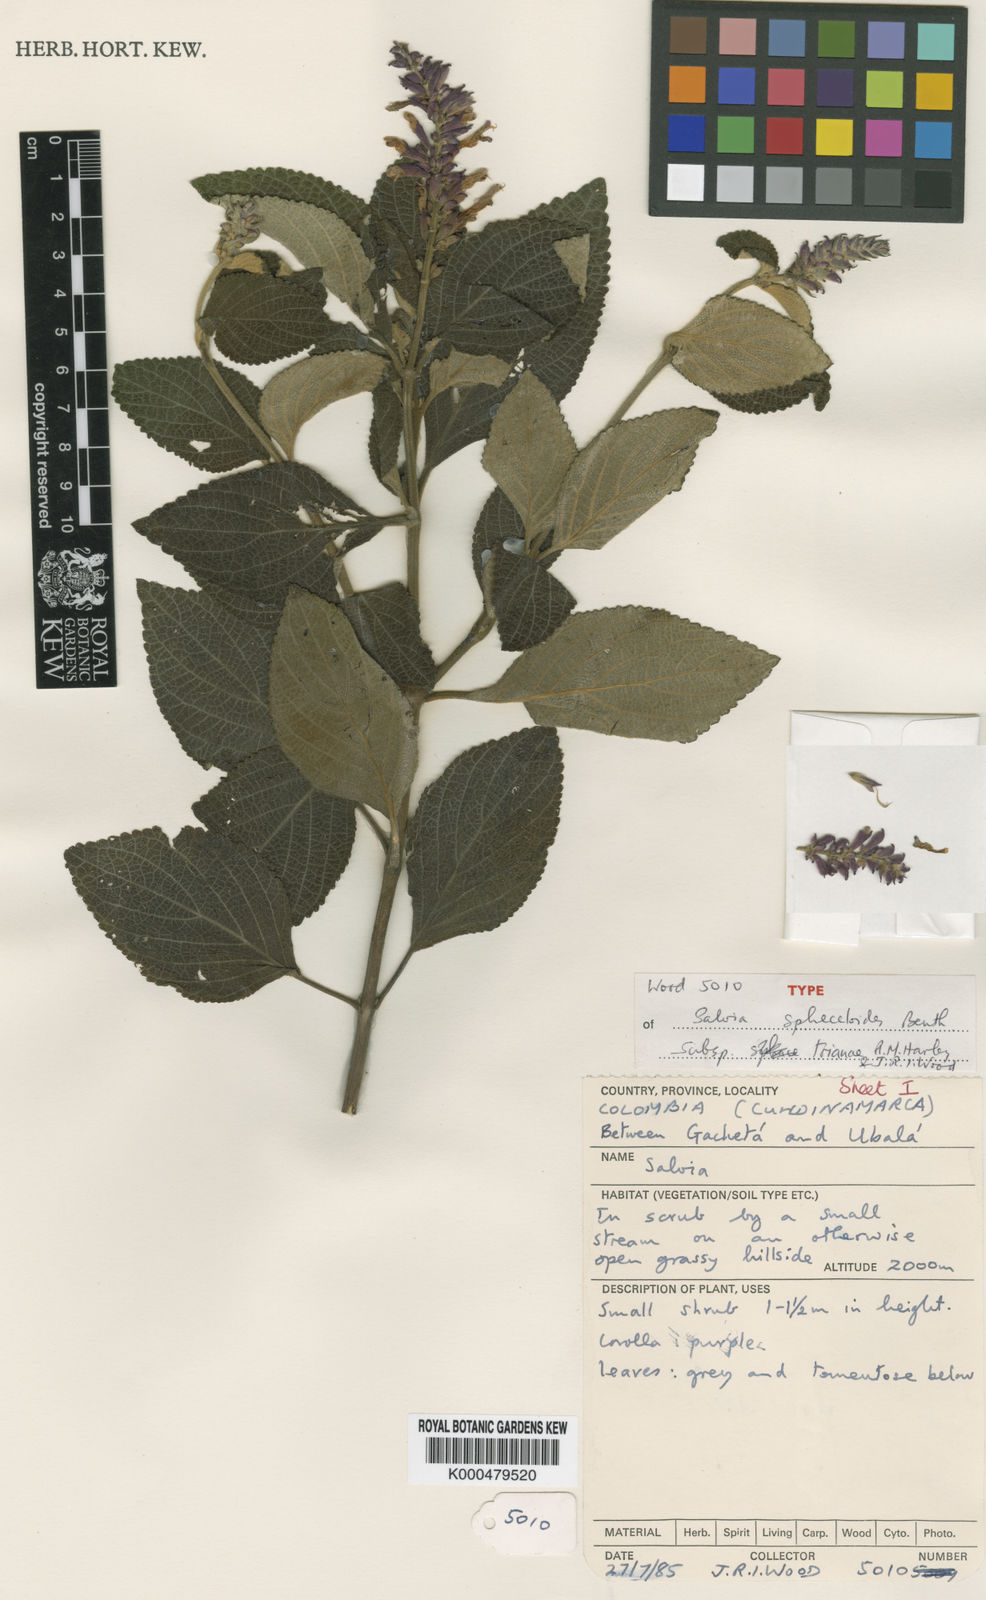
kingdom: Plantae
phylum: Tracheophyta
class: Magnoliopsida
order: Lamiales
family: Lamiaceae
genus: Salvia
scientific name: Salvia sphacelioides
